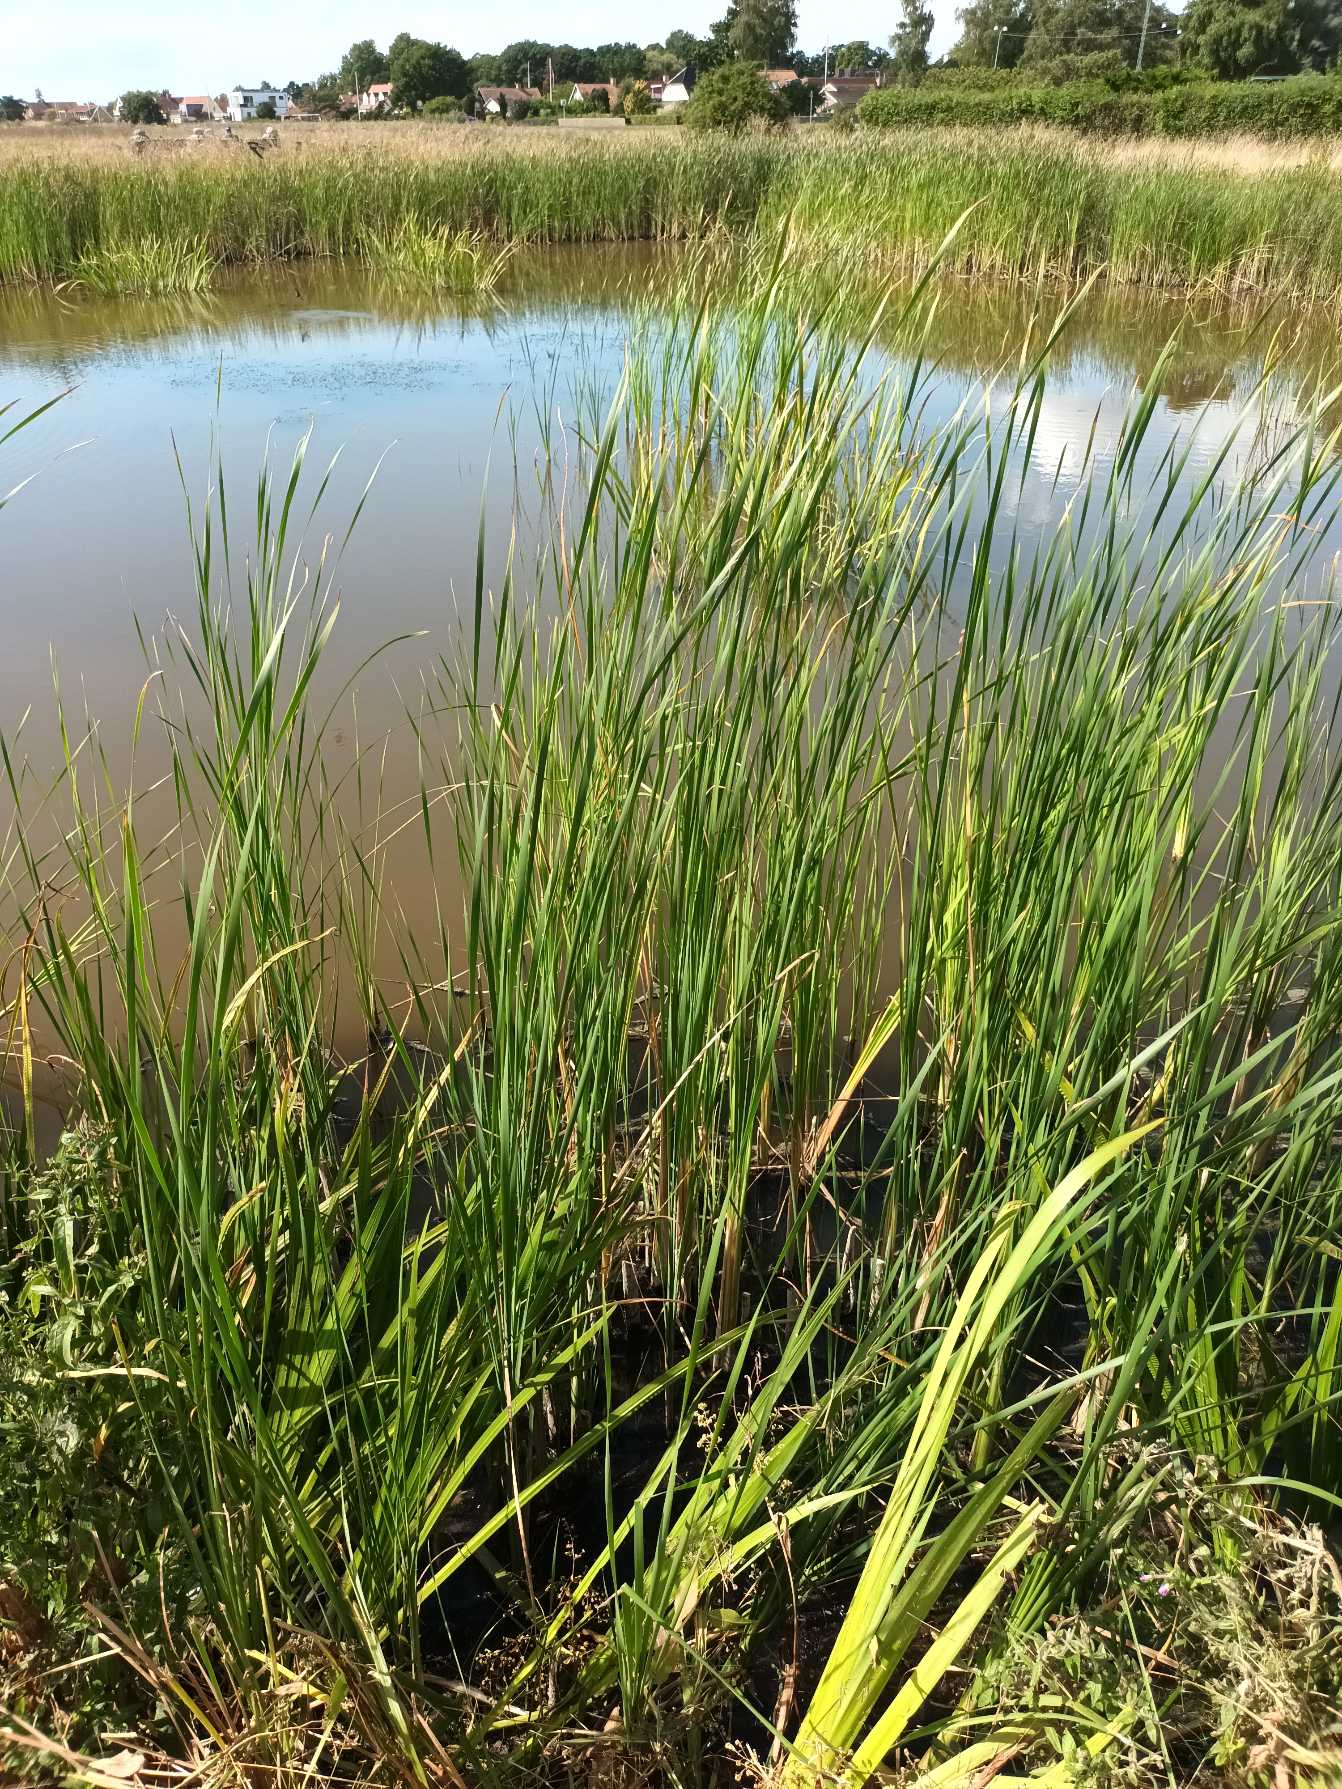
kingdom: Plantae
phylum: Tracheophyta
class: Liliopsida
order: Poales
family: Typhaceae
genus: Typha
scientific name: Typha
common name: Smalbladet dunhammer × bredbladet dunhammer
